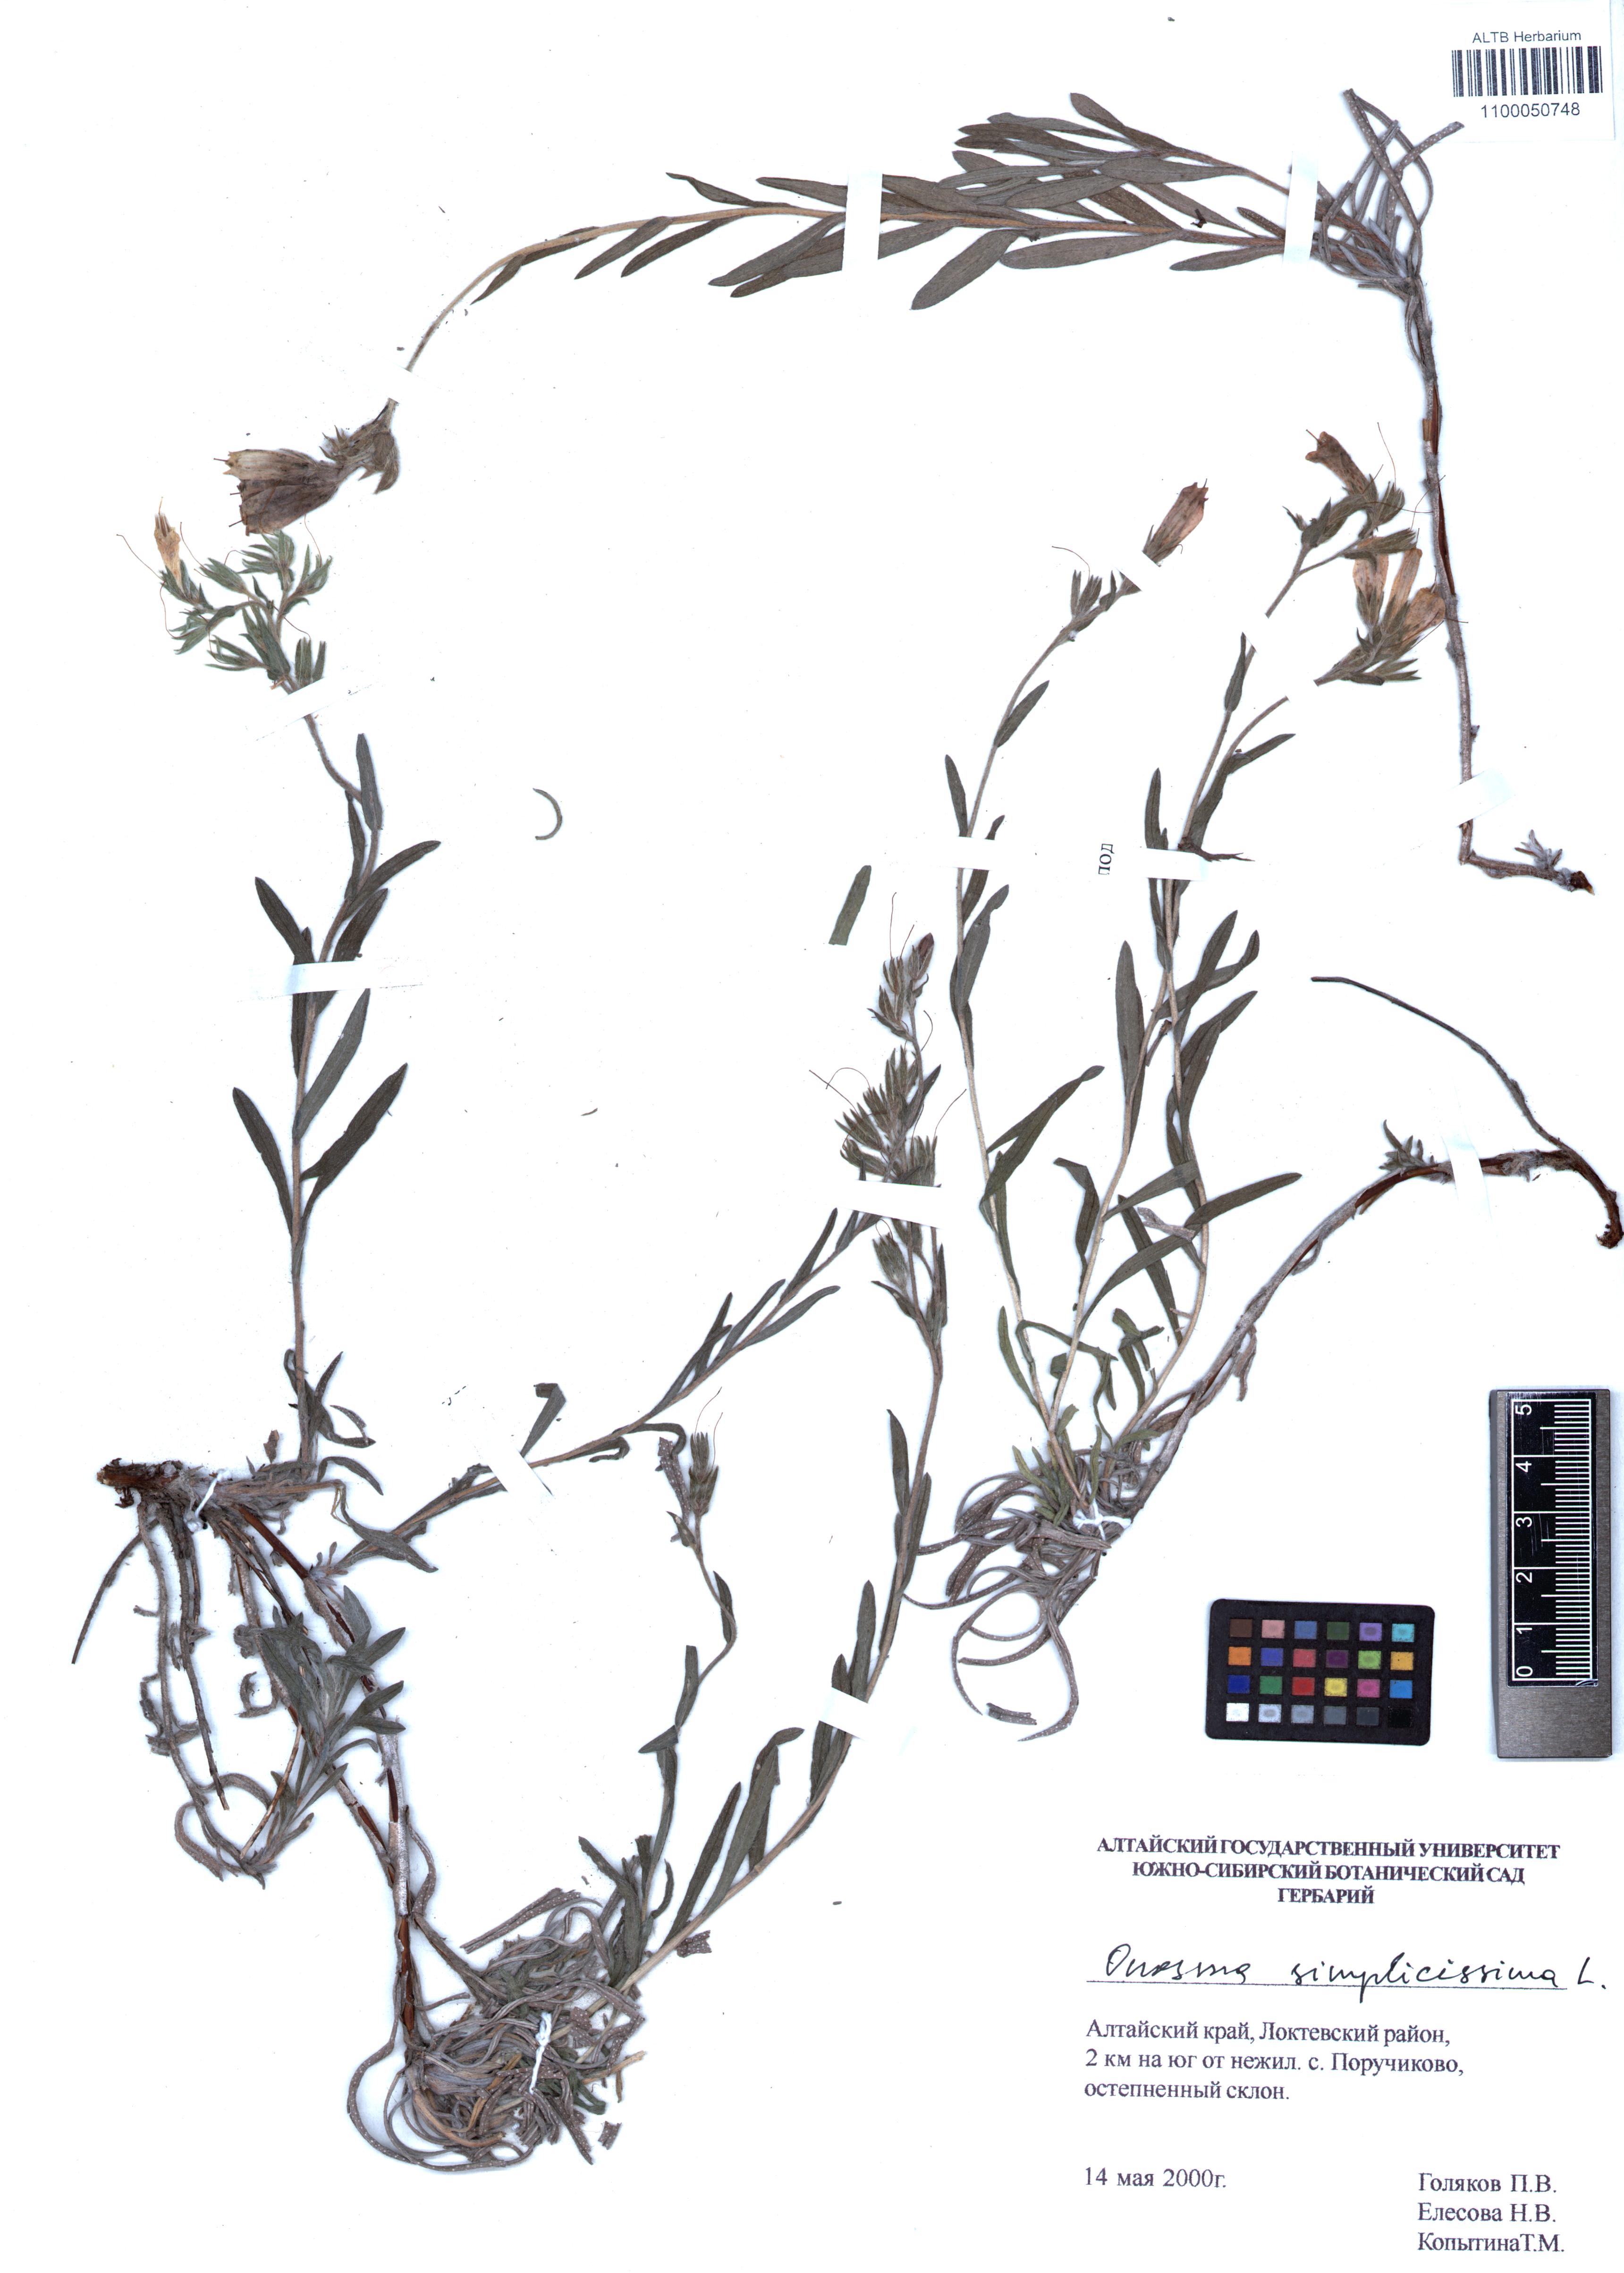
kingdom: Plantae
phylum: Tracheophyta
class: Magnoliopsida
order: Boraginales
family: Boraginaceae
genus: Onosma
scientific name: Onosma simplicissima
